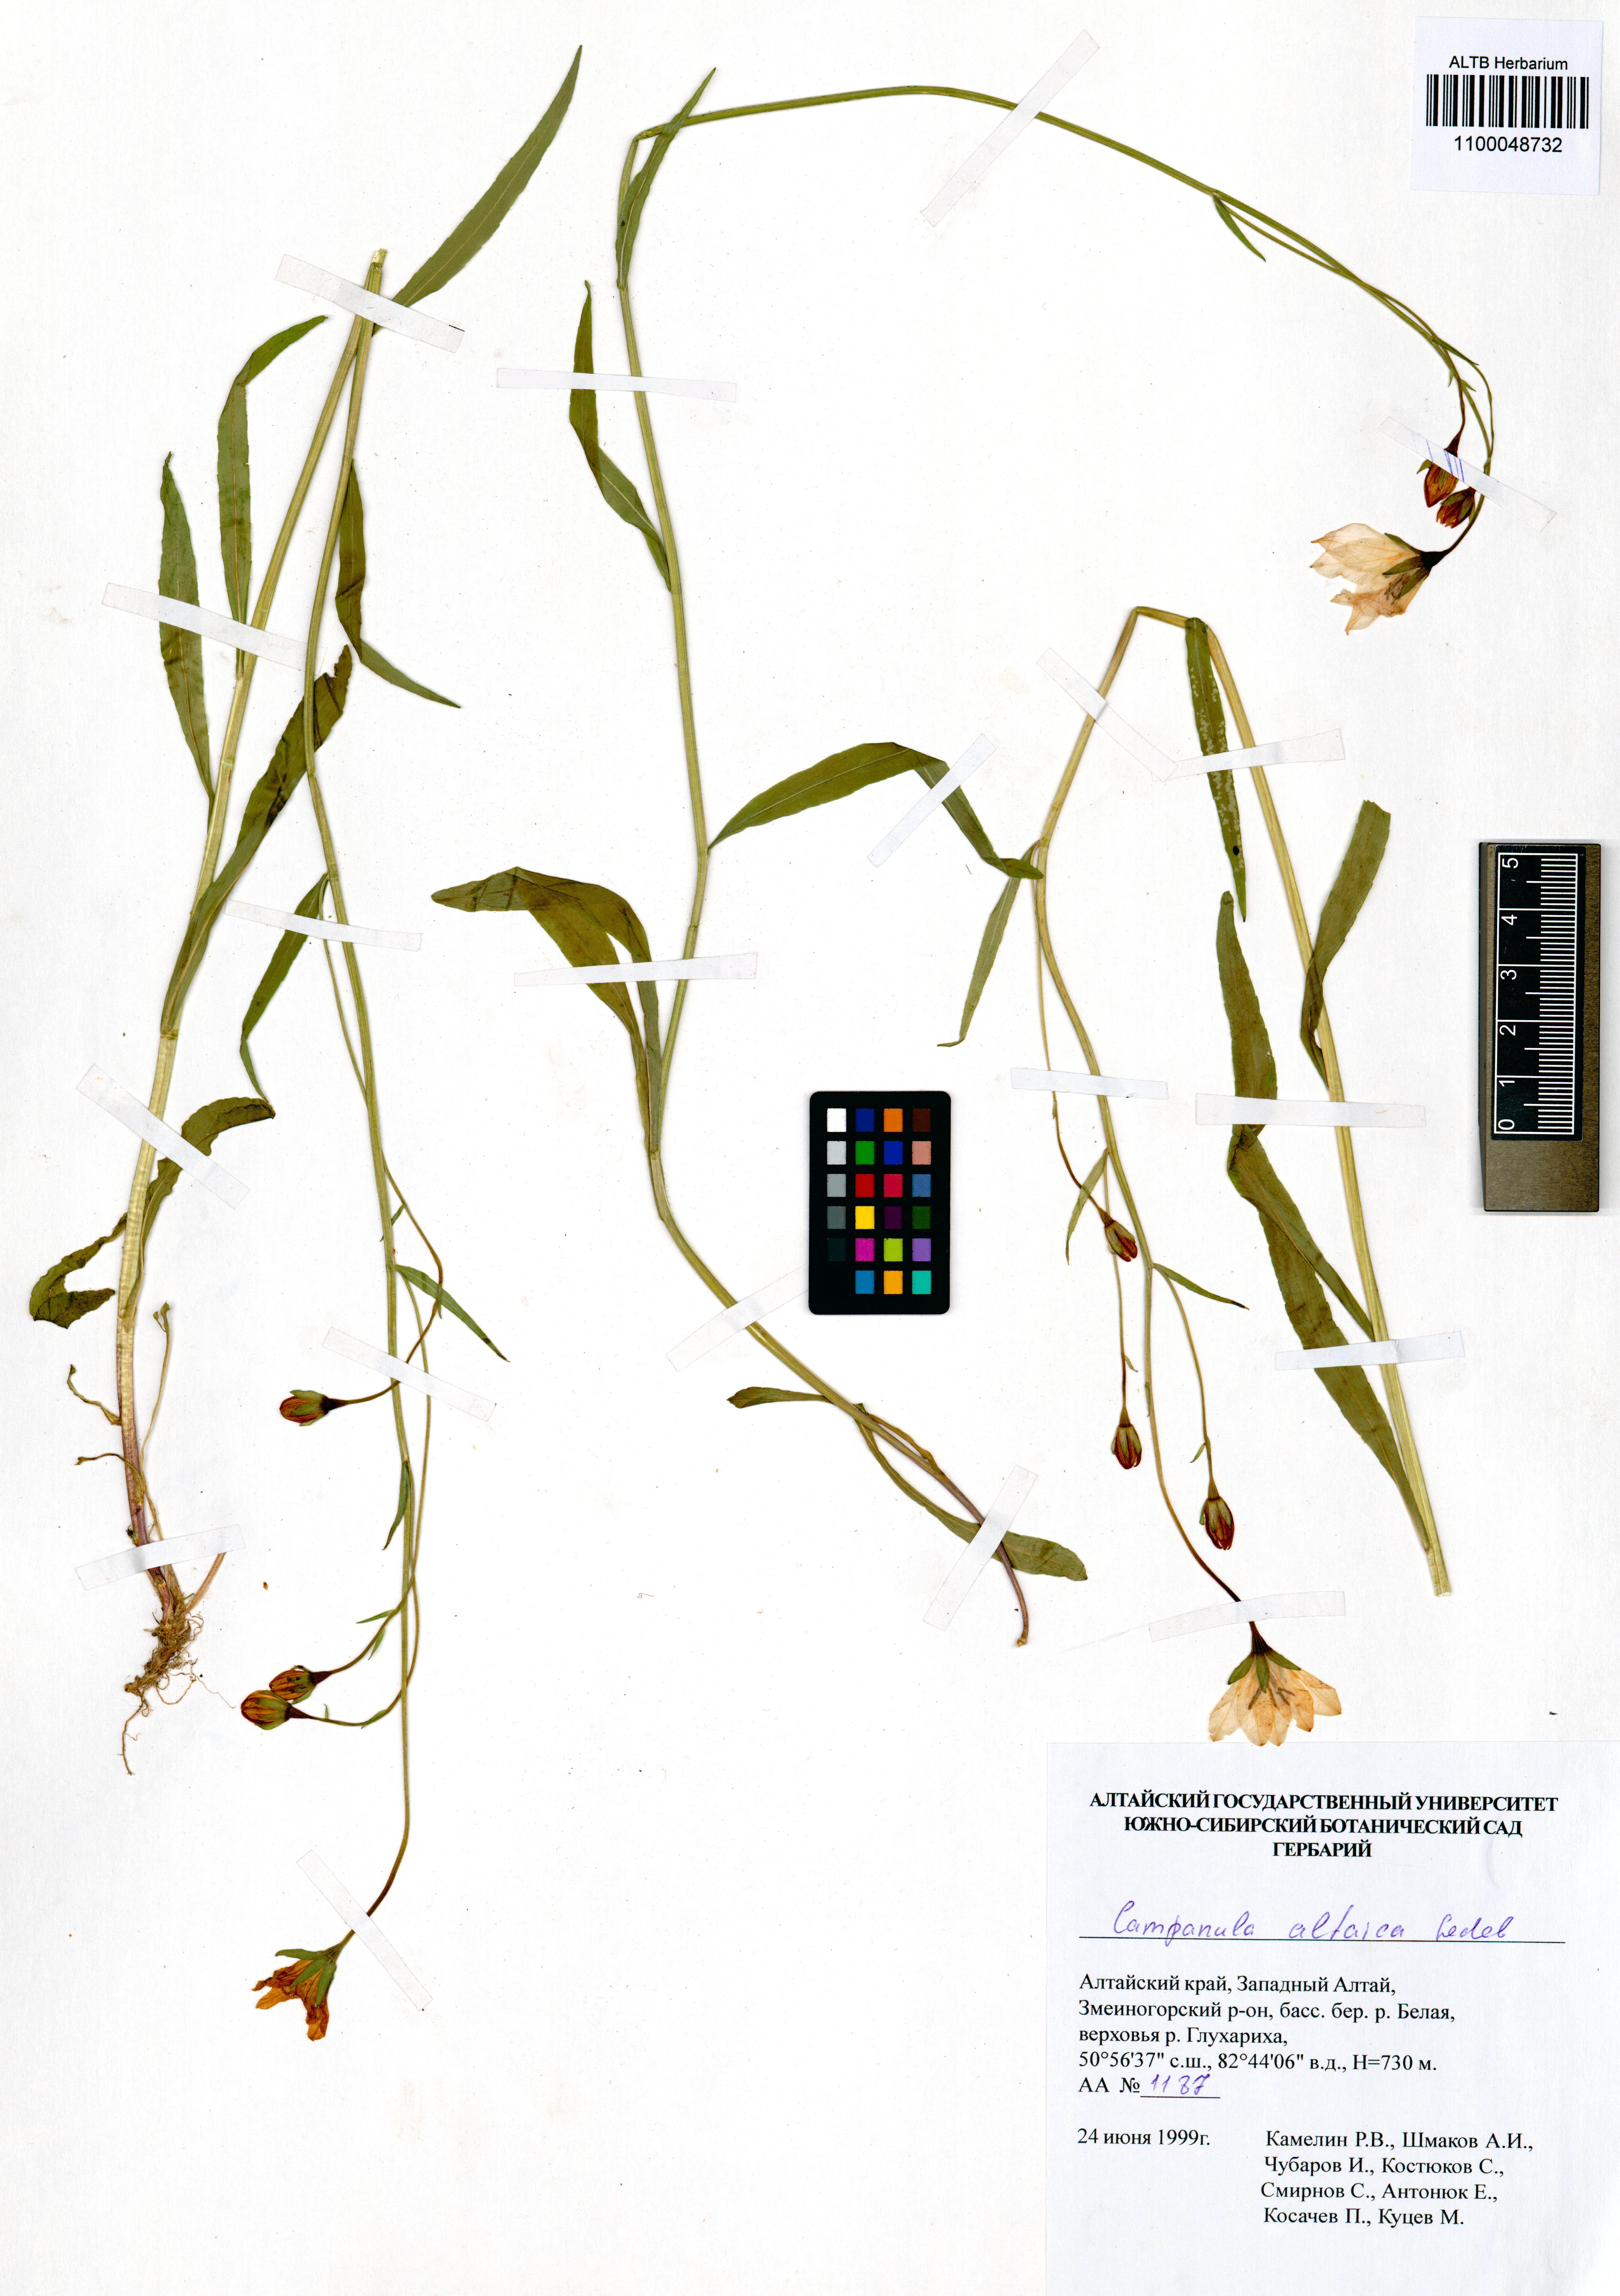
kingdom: Plantae
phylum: Tracheophyta
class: Magnoliopsida
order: Asterales
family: Campanulaceae
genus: Campanula
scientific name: Campanula stevenii
